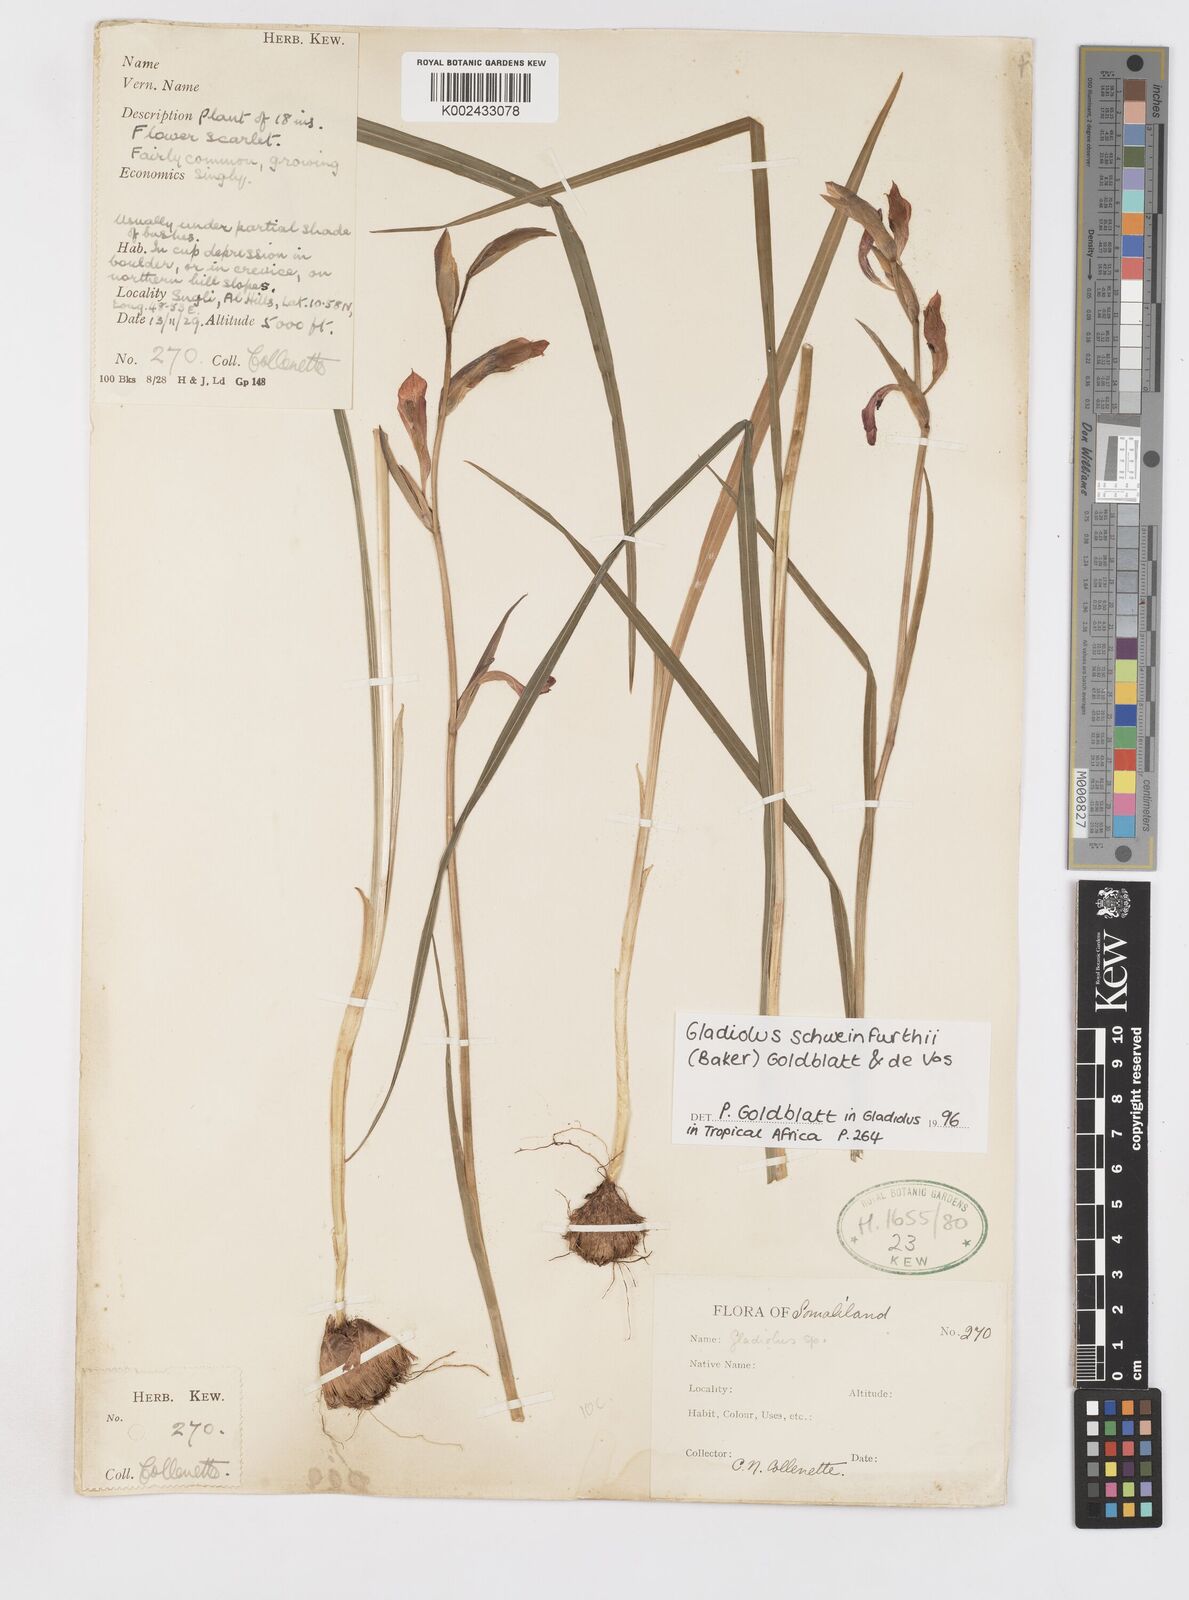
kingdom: Plantae
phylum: Tracheophyta
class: Liliopsida
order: Asparagales
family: Iridaceae
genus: Gladiolus
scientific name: Gladiolus schweinfurthii
